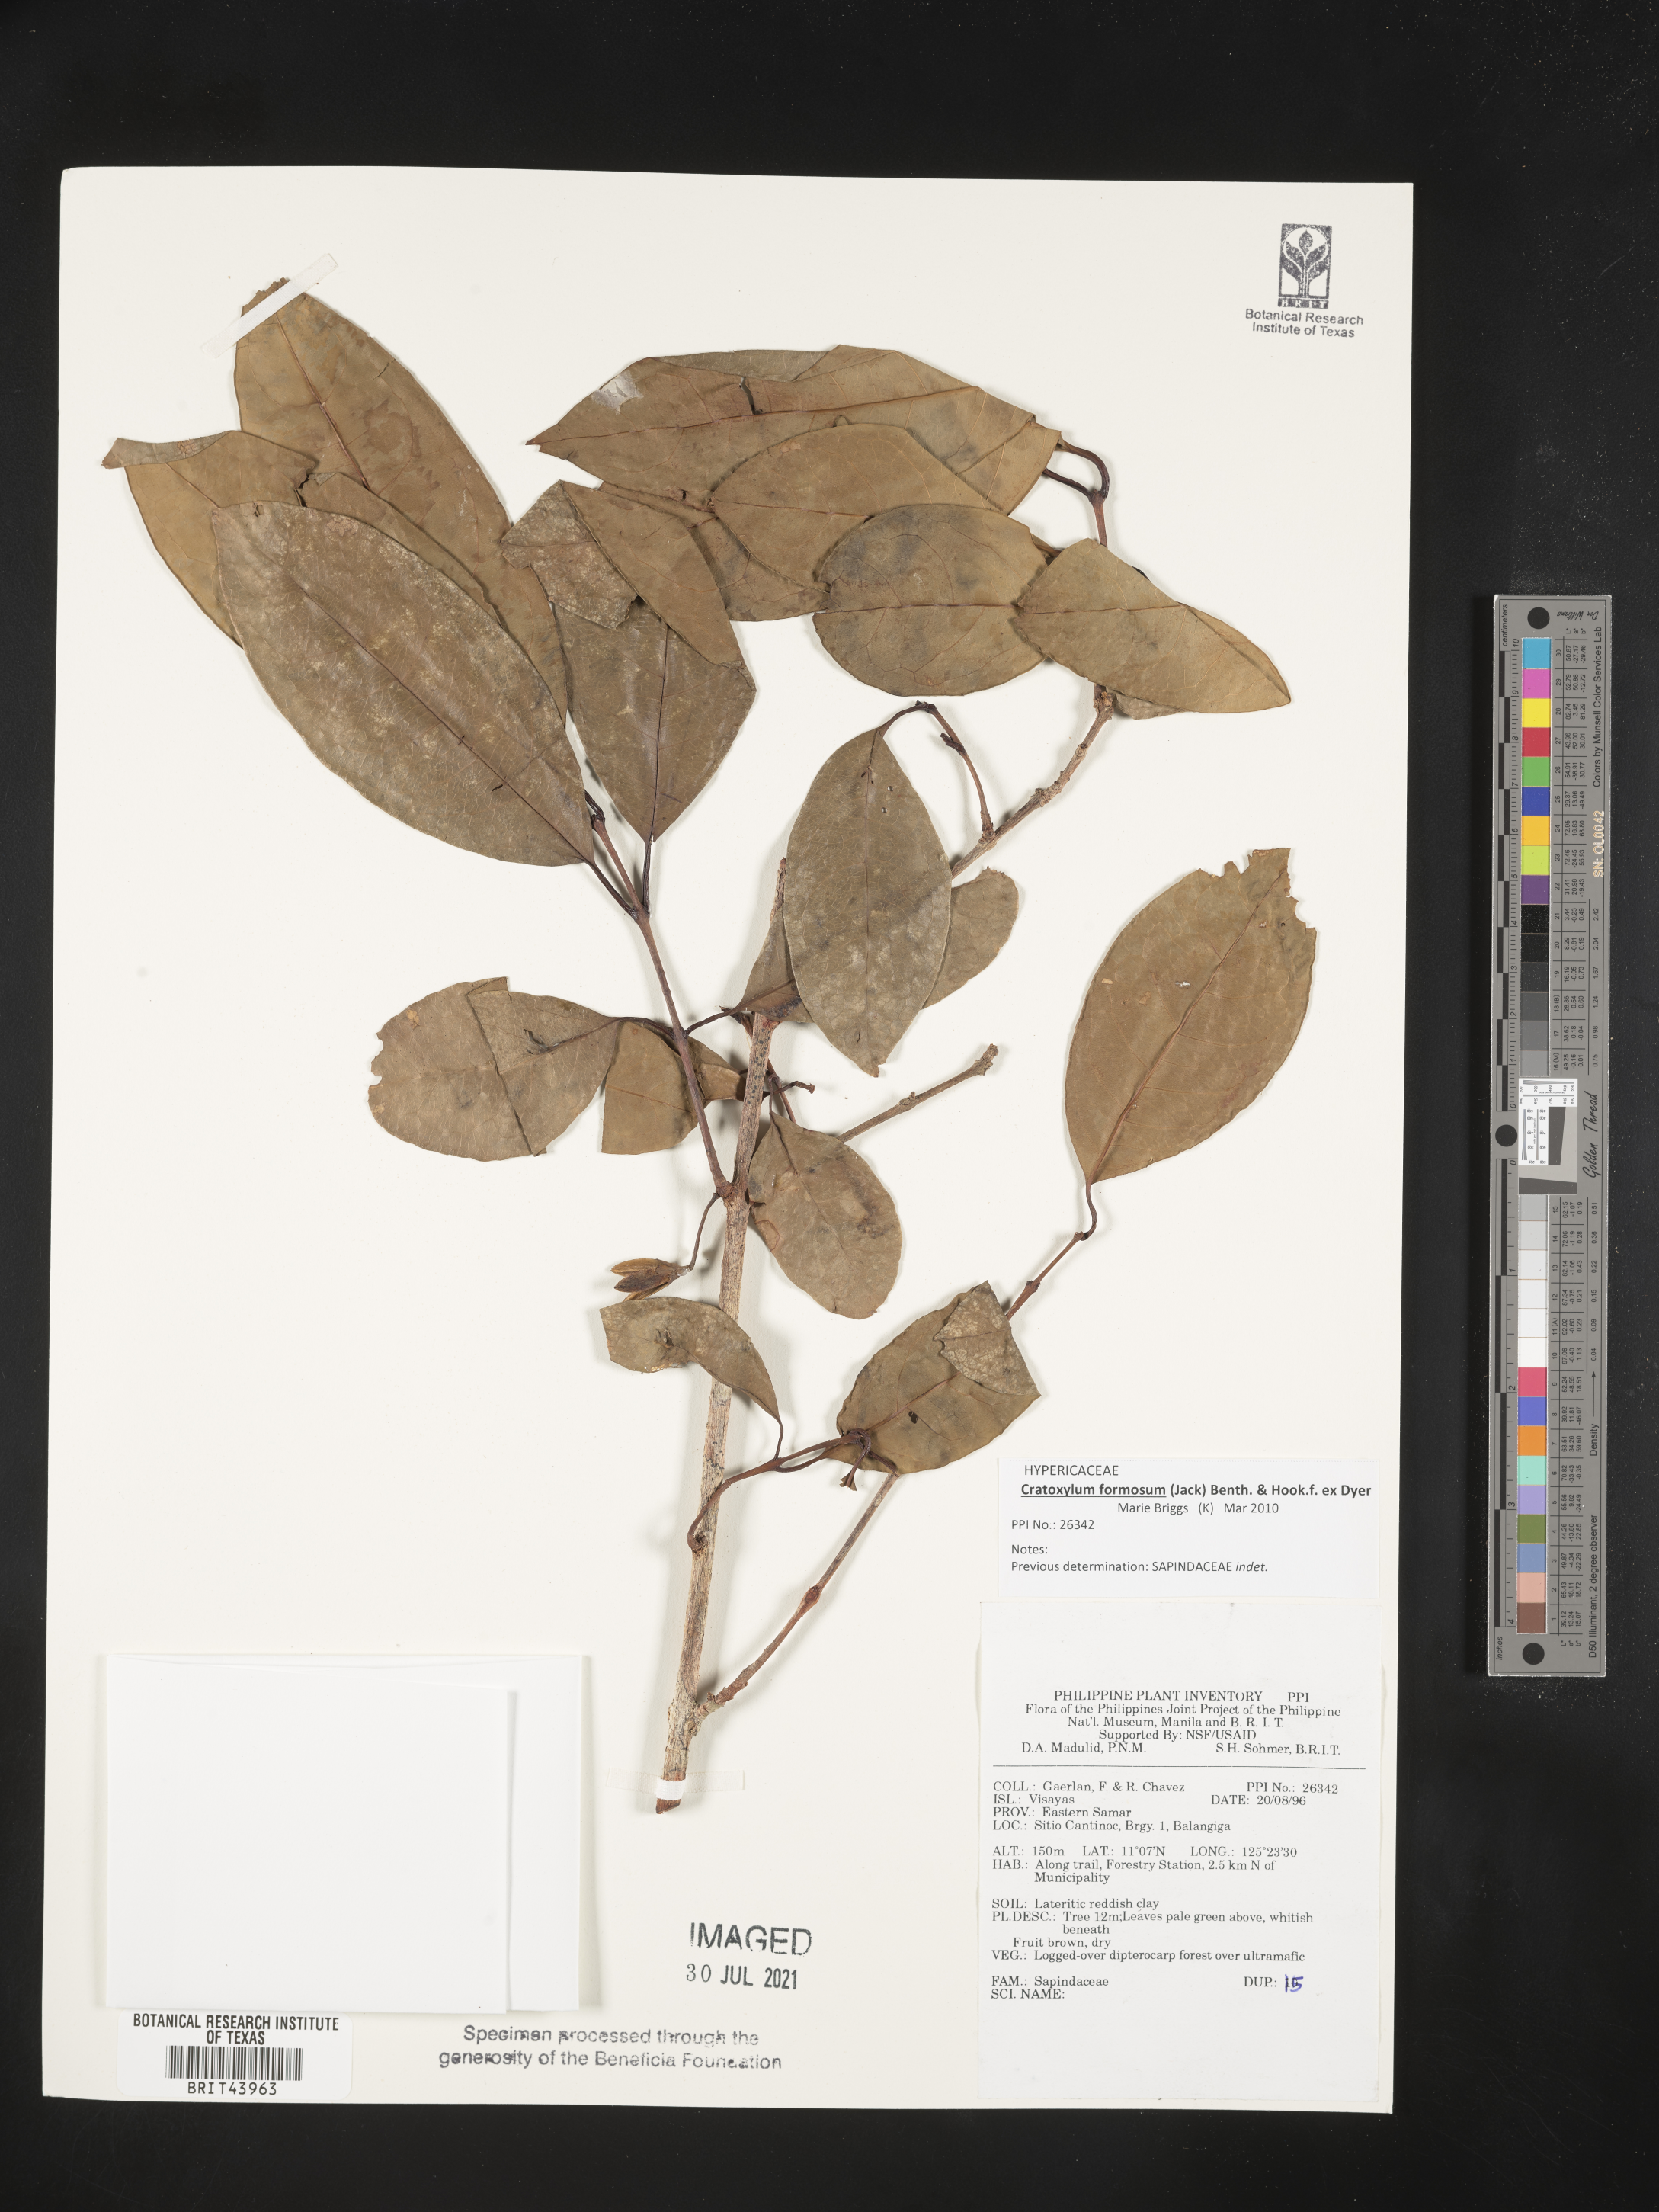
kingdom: Plantae
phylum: Tracheophyta
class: Magnoliopsida
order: Sapindales
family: Sapindaceae
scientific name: Sapindaceae
